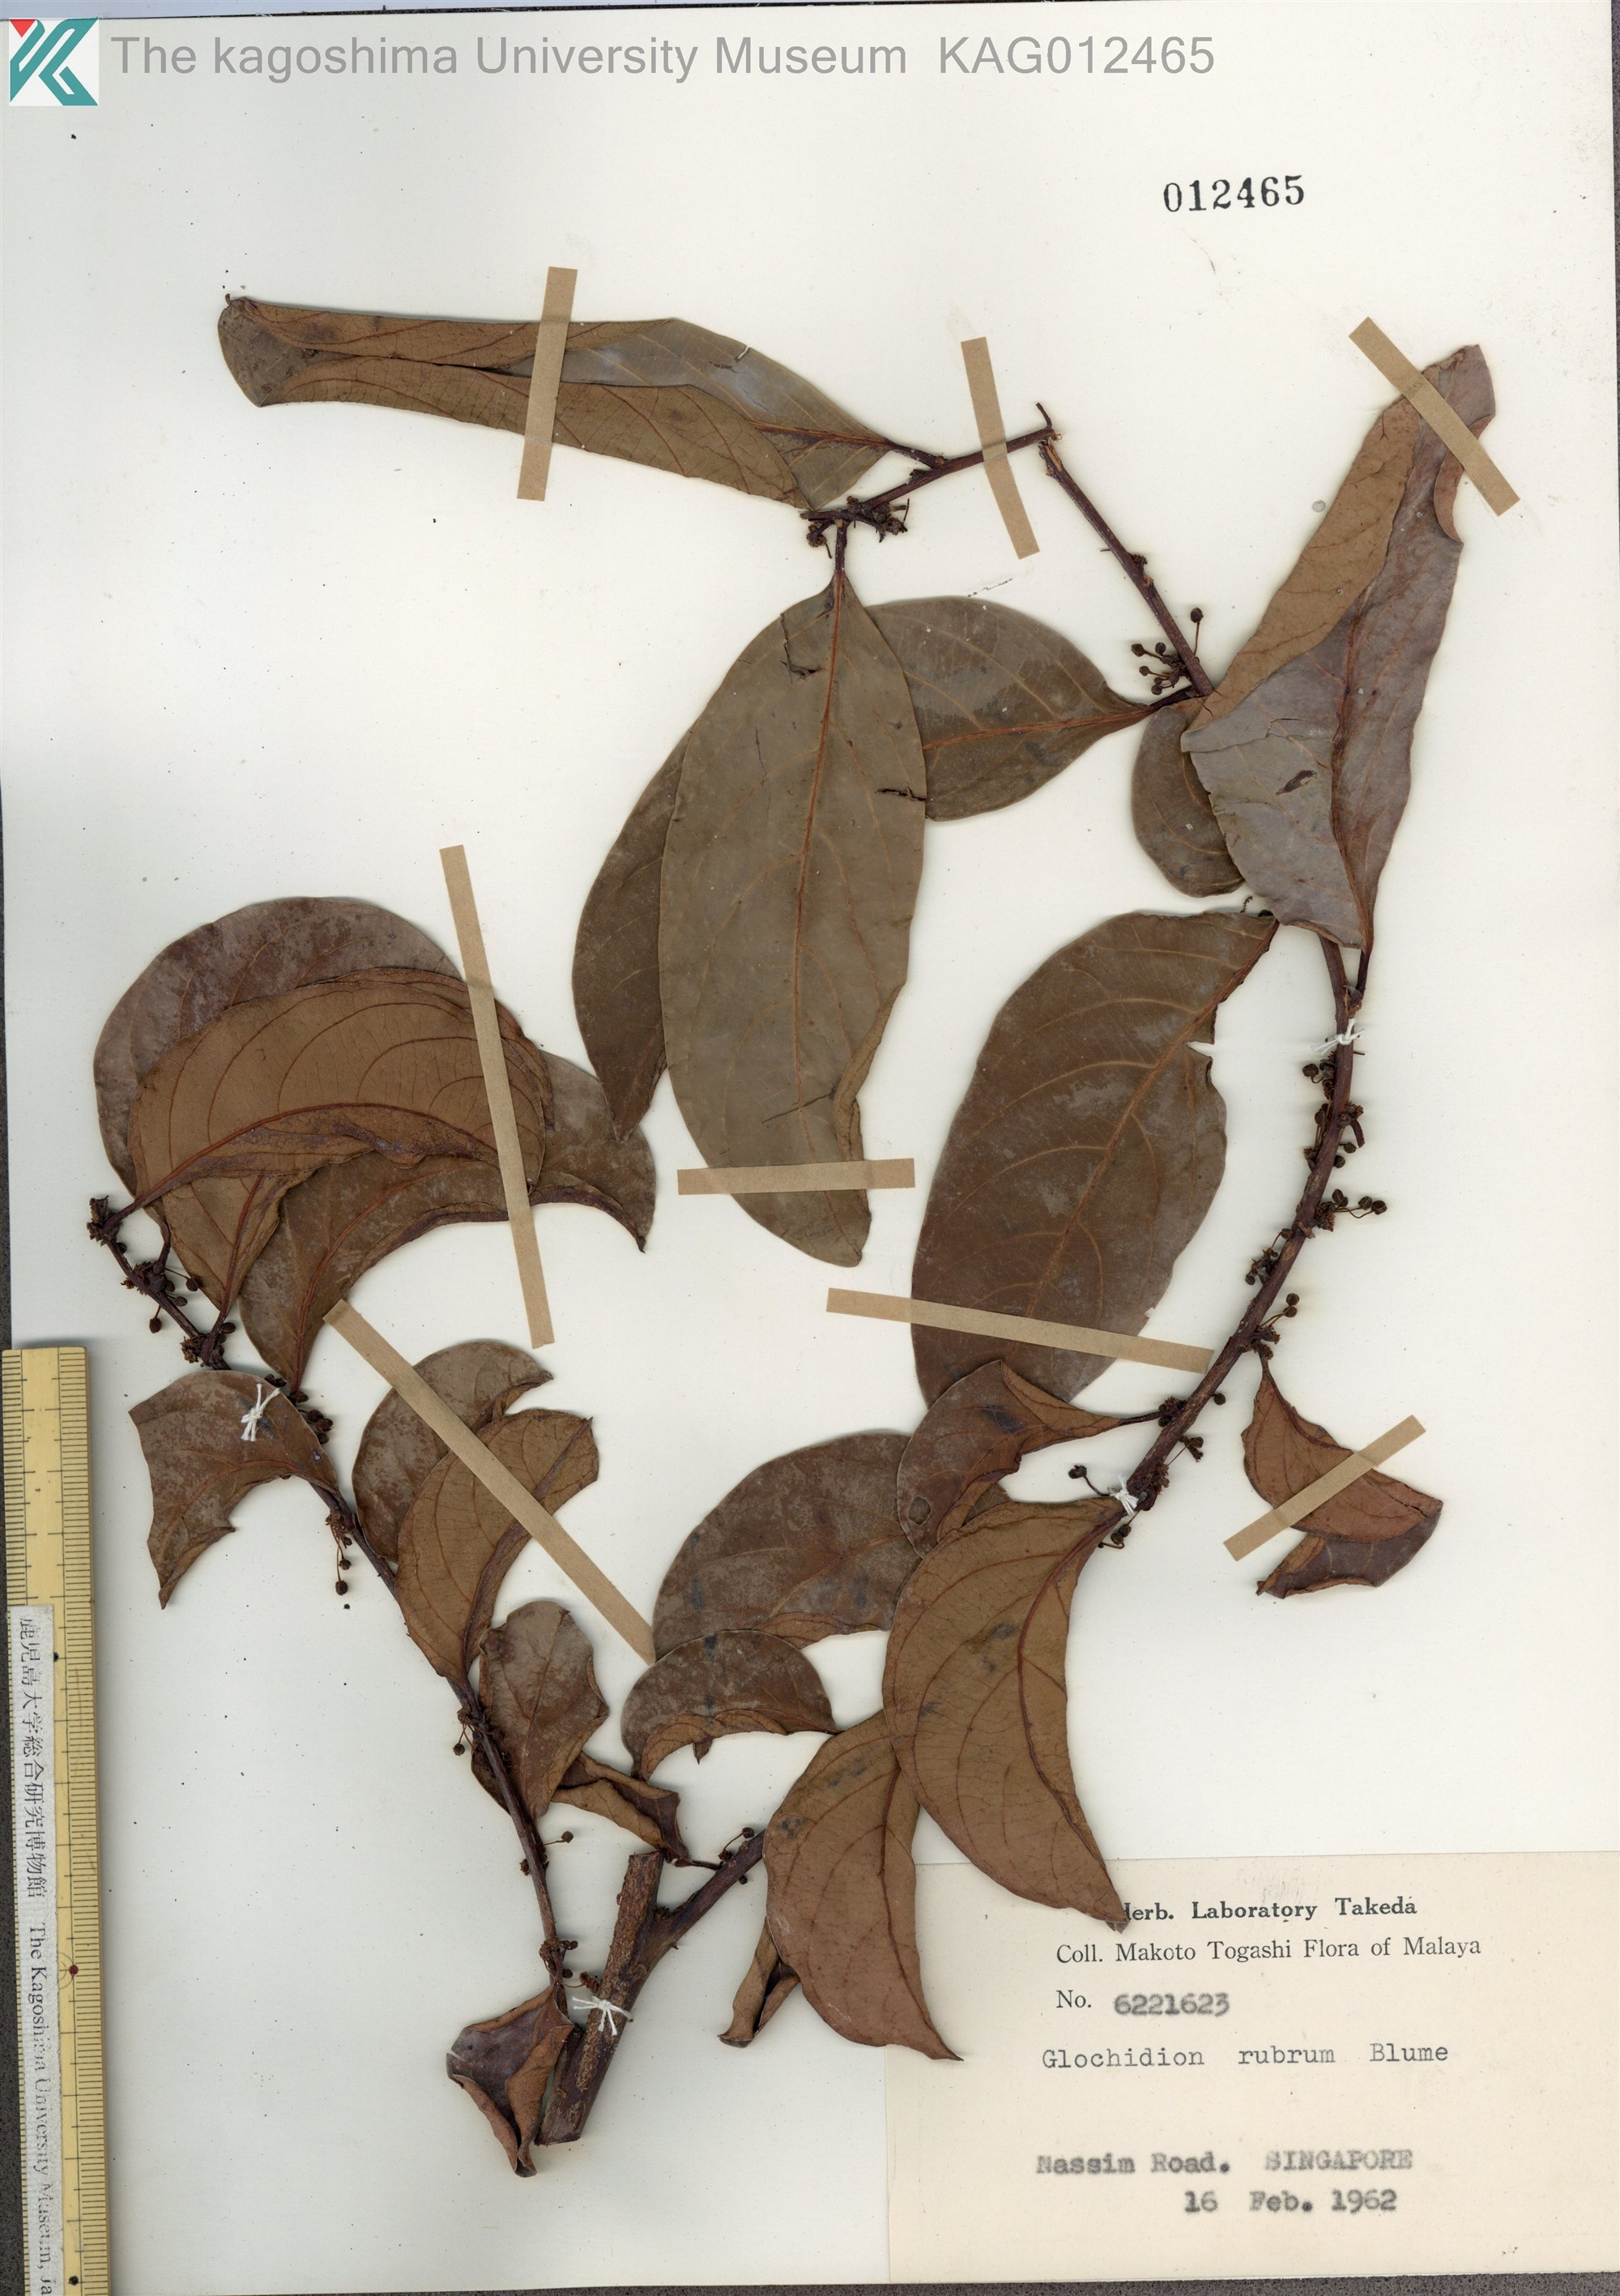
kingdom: Plantae
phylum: Tracheophyta
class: Magnoliopsida
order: Malpighiales
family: Phyllanthaceae
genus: Glochidion
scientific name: Glochidion rubrum
